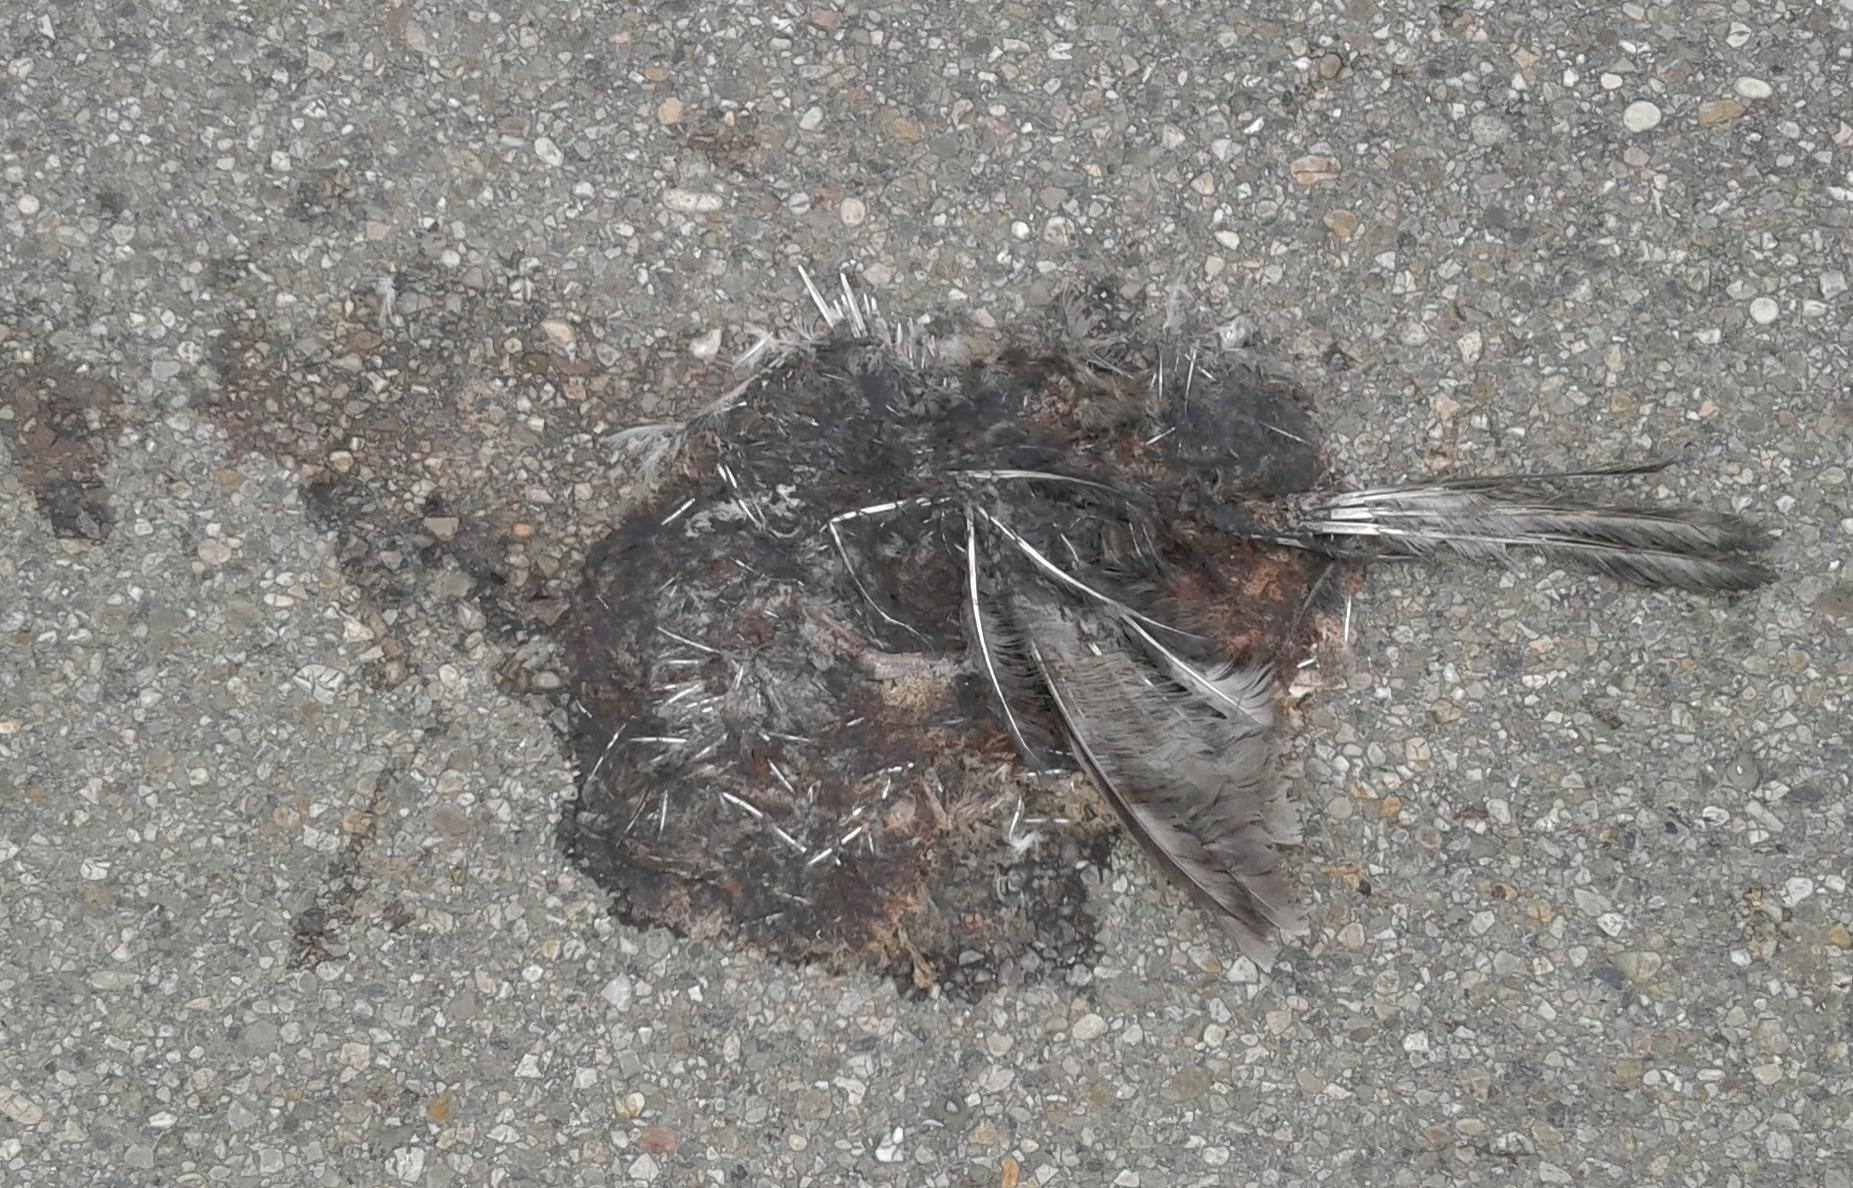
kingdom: Animalia
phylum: Chordata
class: Aves
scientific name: Aves
